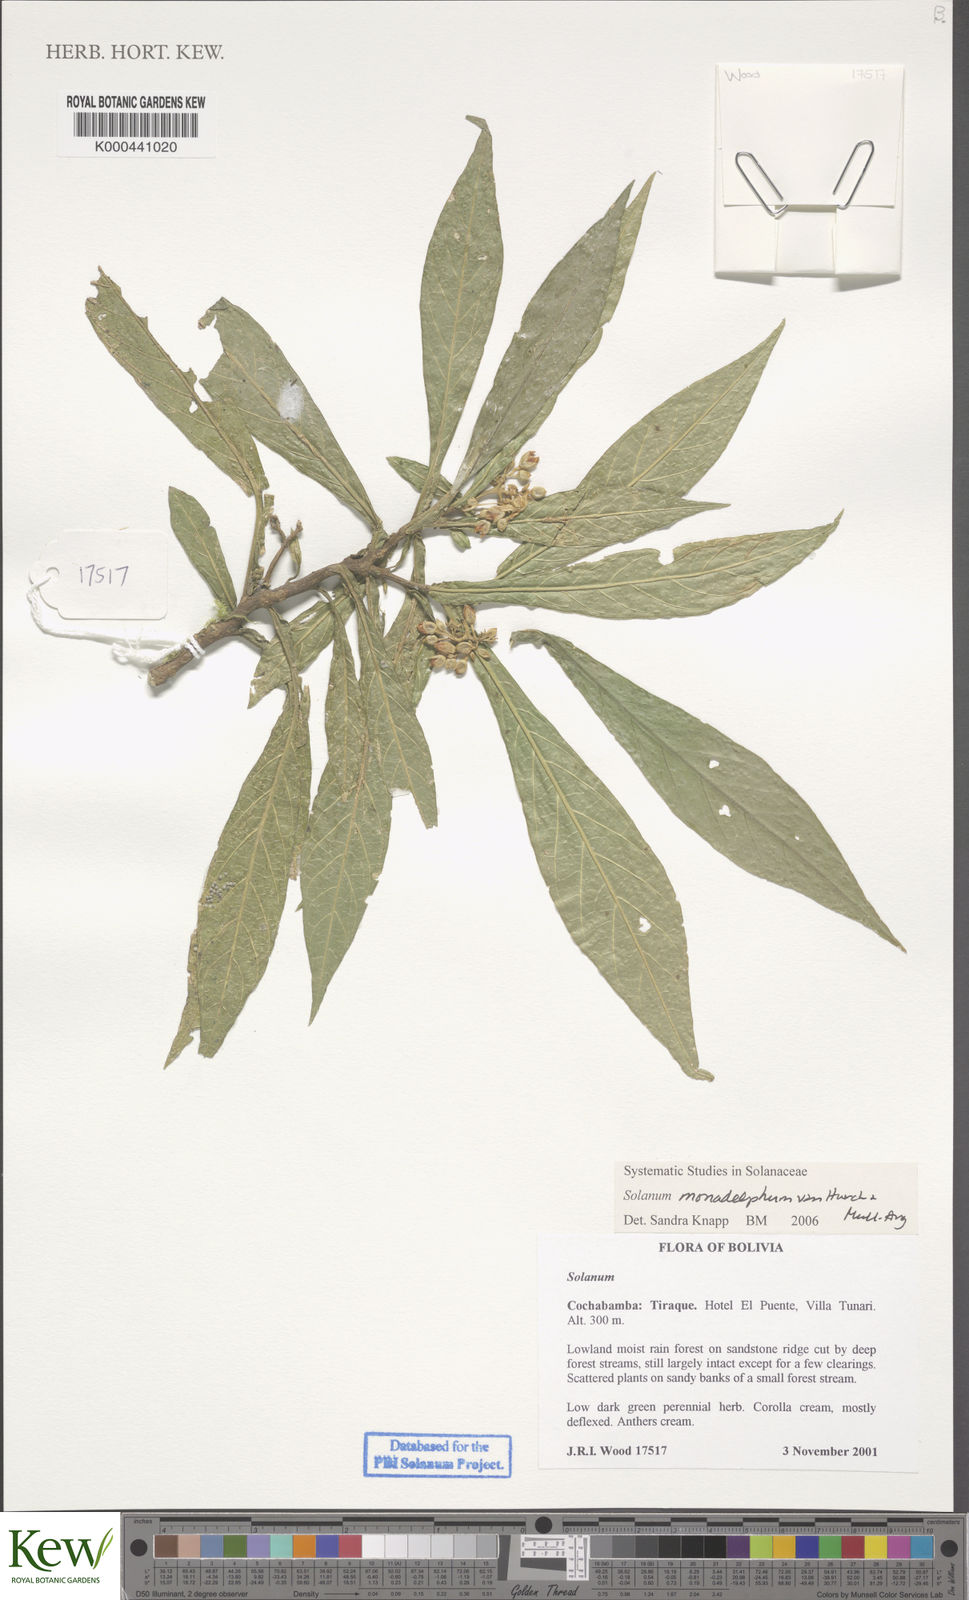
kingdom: Plantae
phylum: Tracheophyta
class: Magnoliopsida
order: Solanales
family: Solanaceae
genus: Solanum
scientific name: Solanum monadelphum
